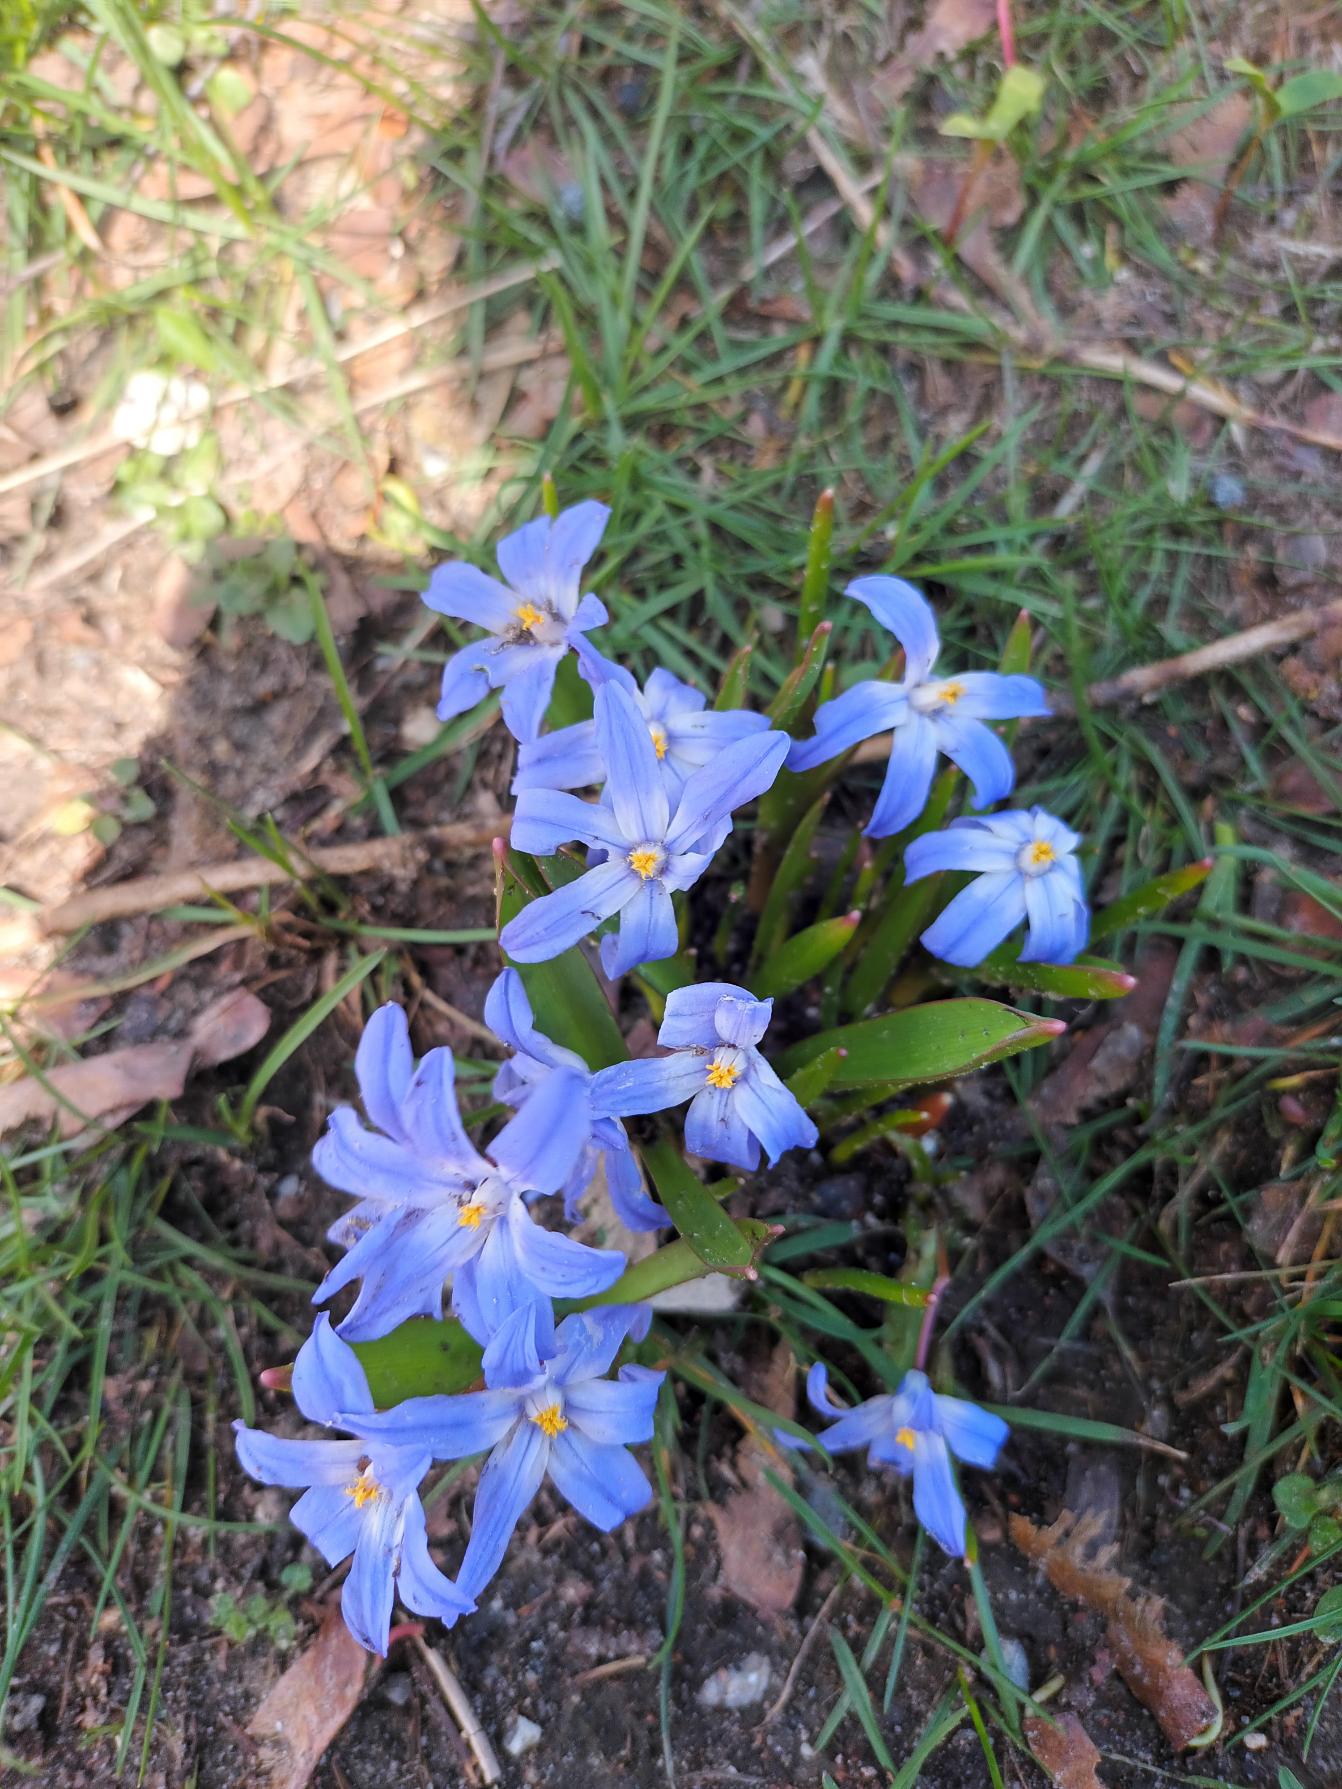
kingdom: Plantae
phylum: Tracheophyta
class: Liliopsida
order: Asparagales
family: Asparagaceae
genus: Scilla
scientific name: Scilla luciliae
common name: Stor snepryd
